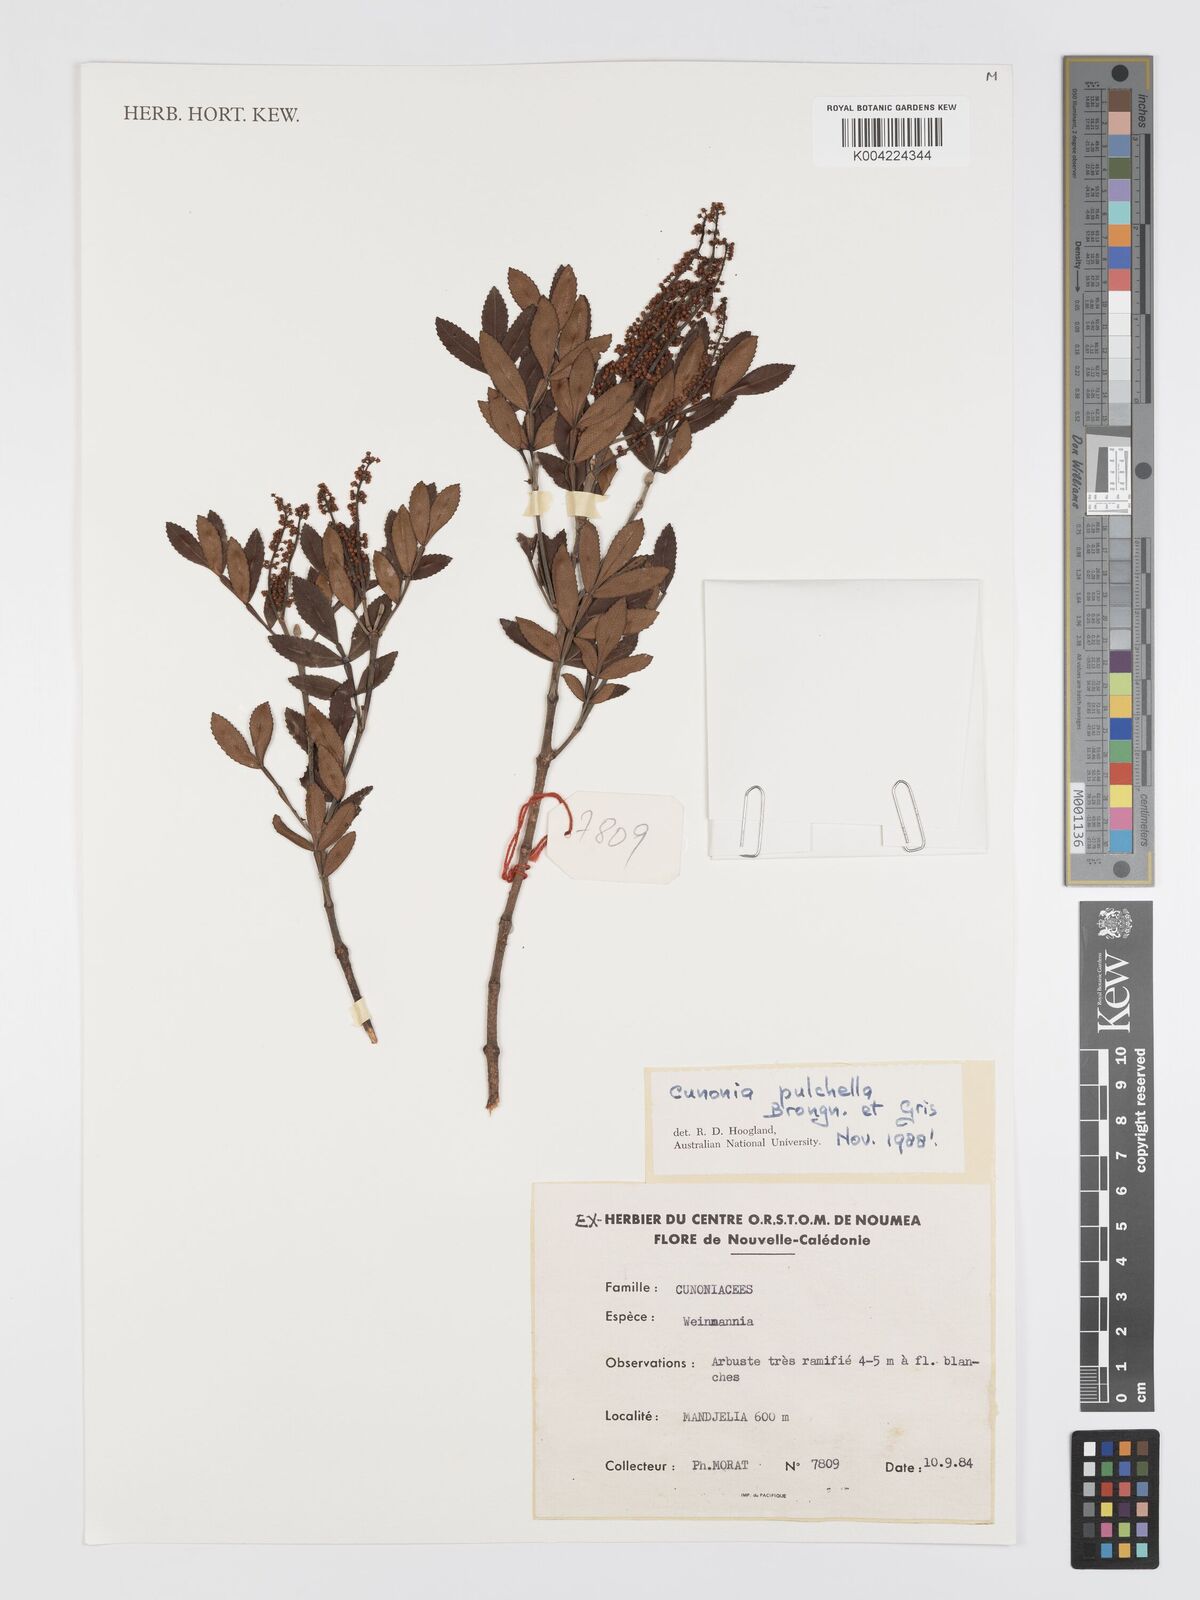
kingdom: Plantae
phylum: Tracheophyta
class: Magnoliopsida
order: Oxalidales
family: Cunoniaceae
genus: Cunonia
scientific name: Cunonia pulchella
